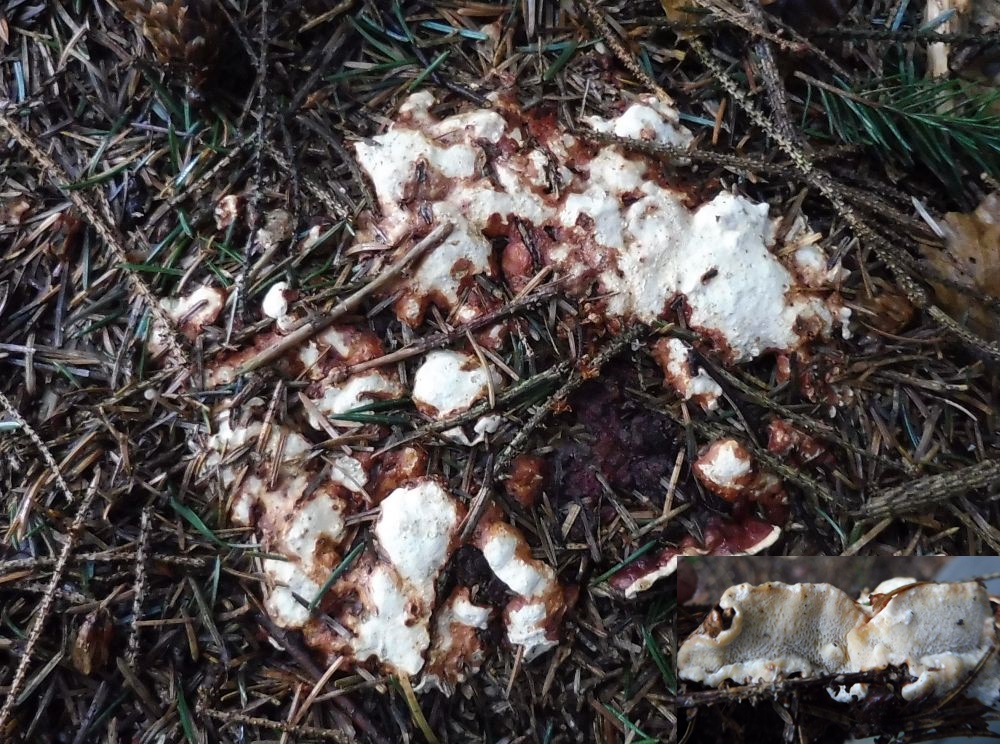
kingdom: Fungi
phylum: Basidiomycota
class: Agaricomycetes
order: Russulales
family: Bondarzewiaceae
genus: Heterobasidion
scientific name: Heterobasidion annosum
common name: almindelig rodfordærver
